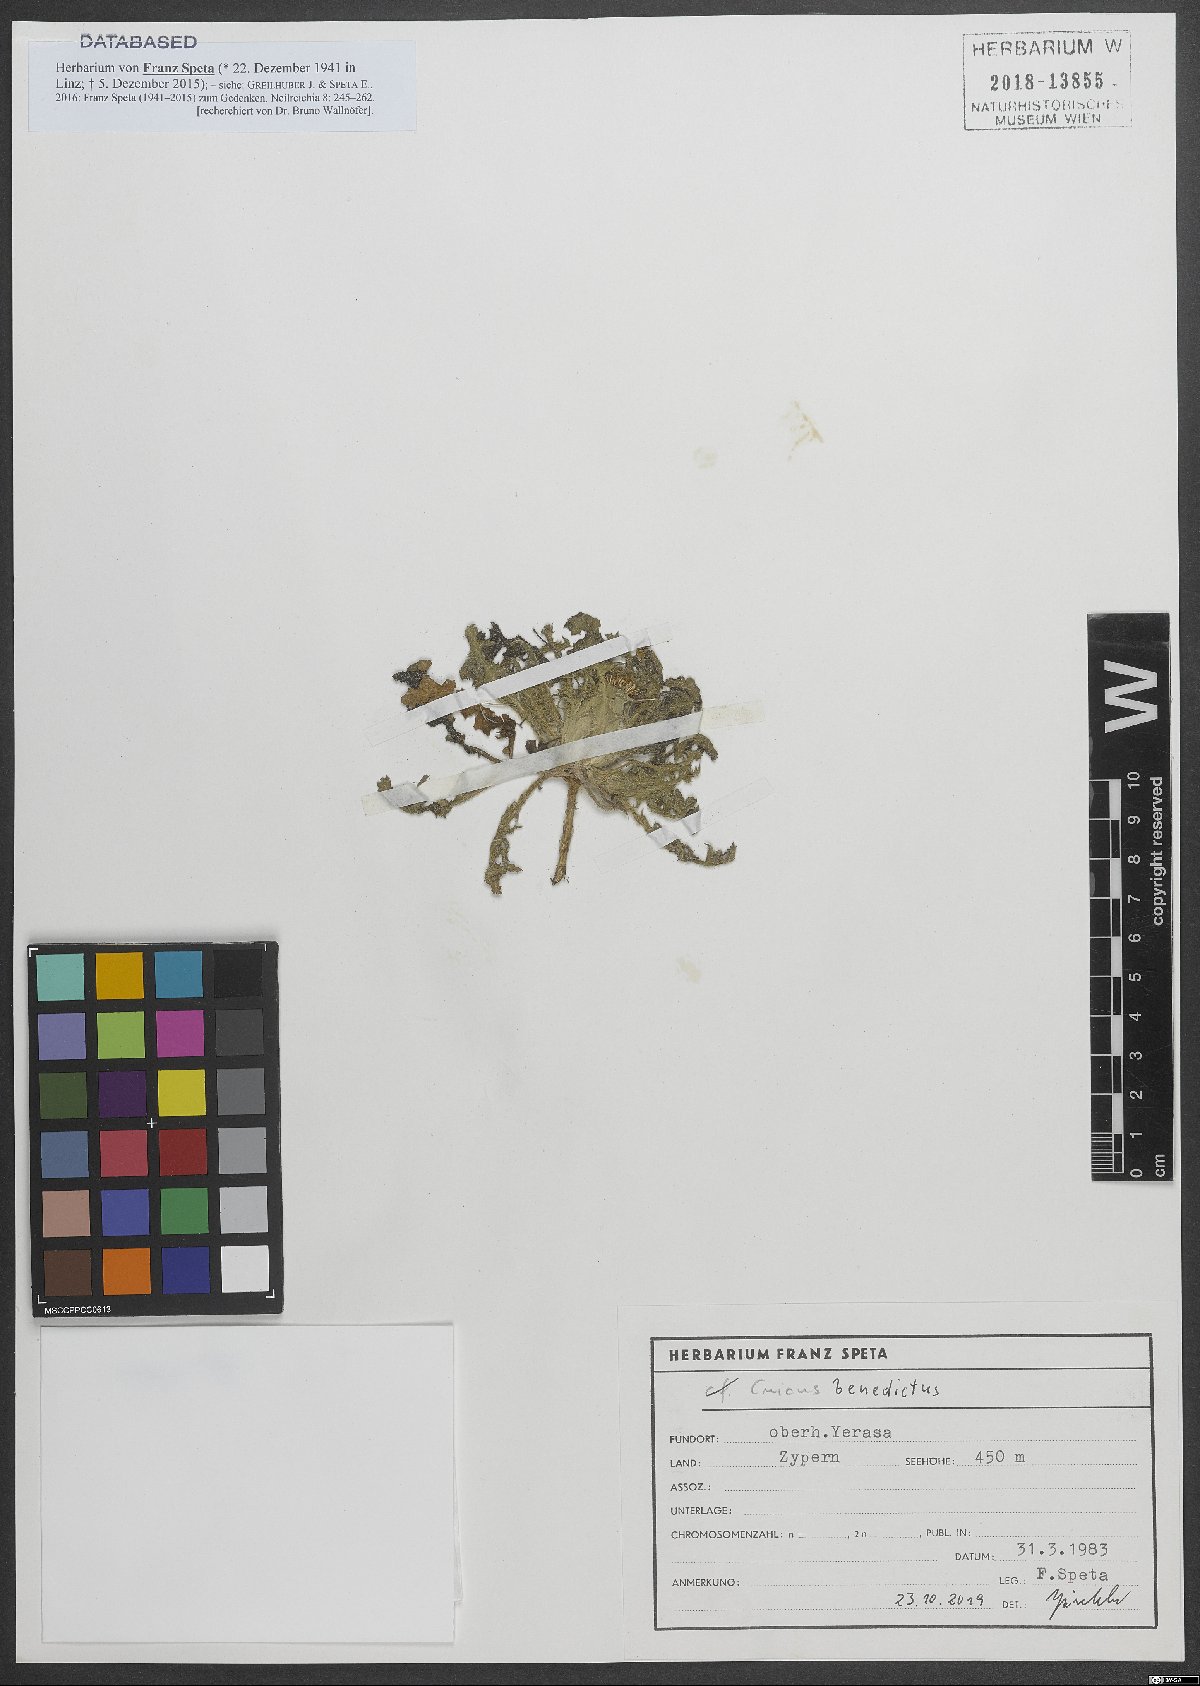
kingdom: Plantae
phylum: Tracheophyta
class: Magnoliopsida
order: Asterales
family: Asteraceae
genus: Centaurea
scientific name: Centaurea benedicta
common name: Blessed thistle
